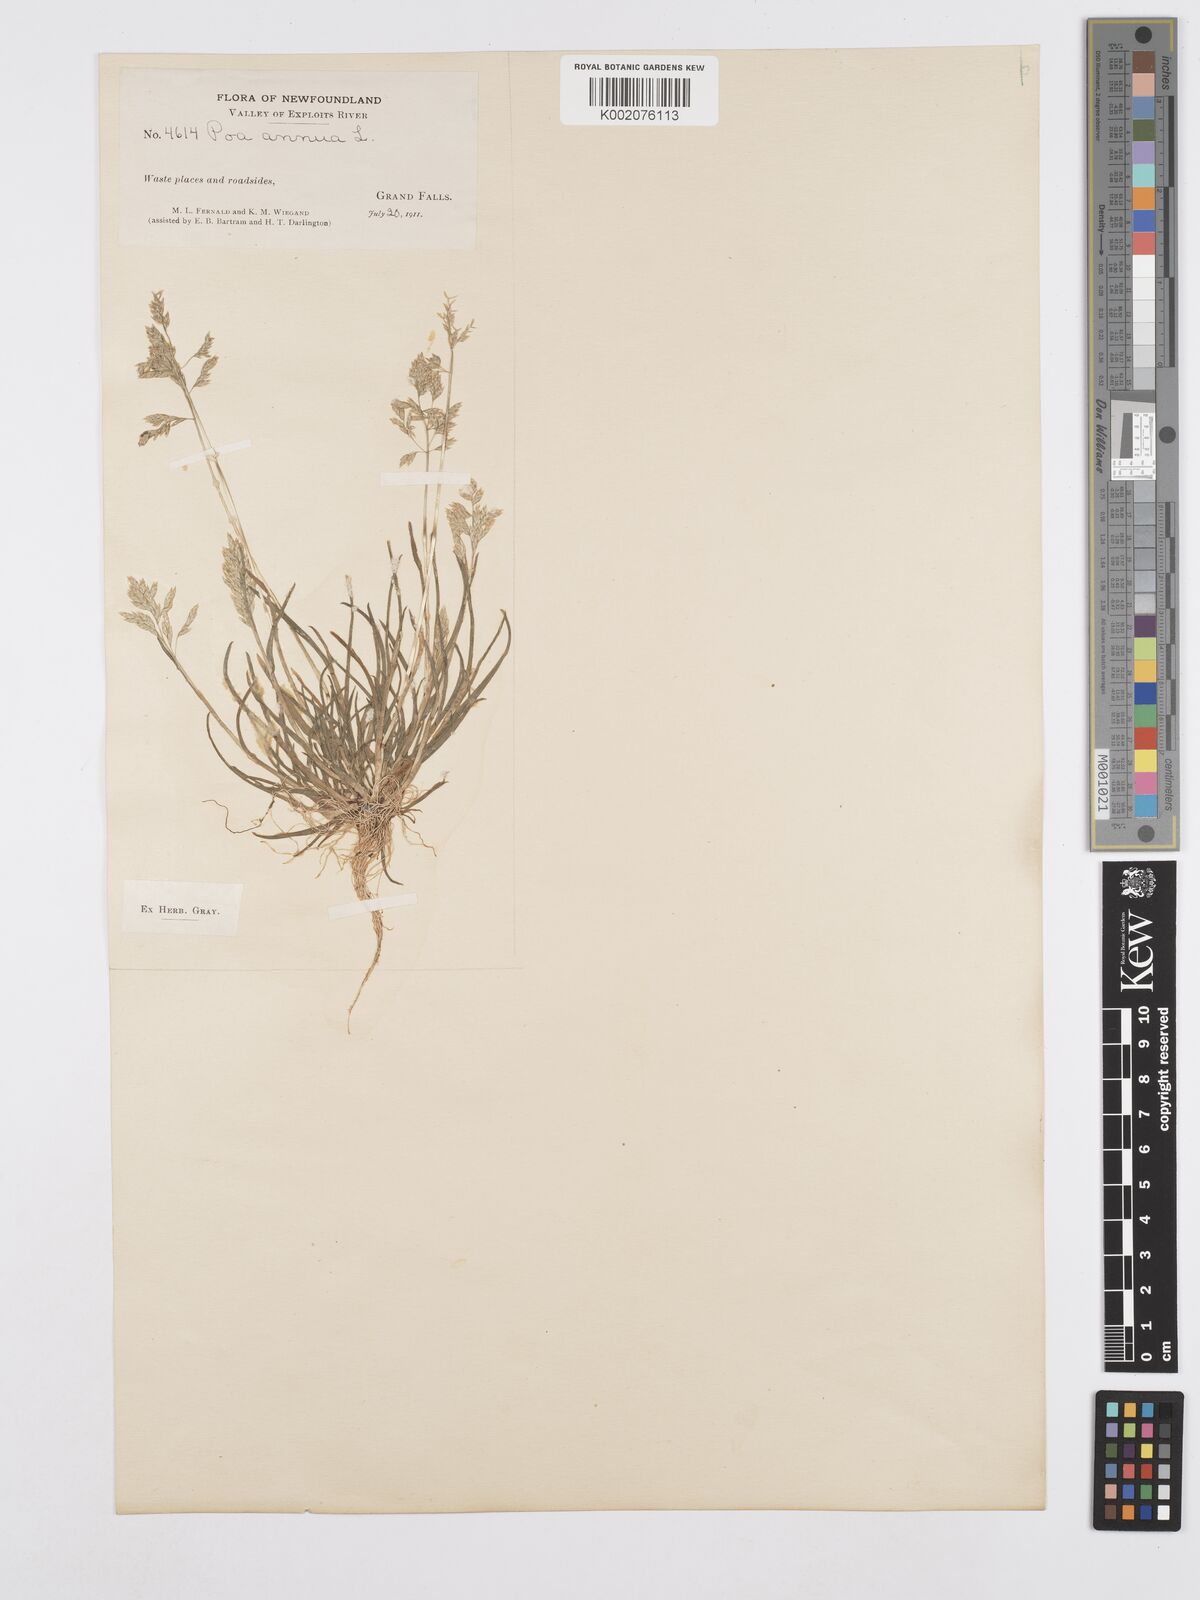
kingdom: Plantae
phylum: Tracheophyta
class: Liliopsida
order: Poales
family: Poaceae
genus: Poa
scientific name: Poa annua
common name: Annual bluegrass
